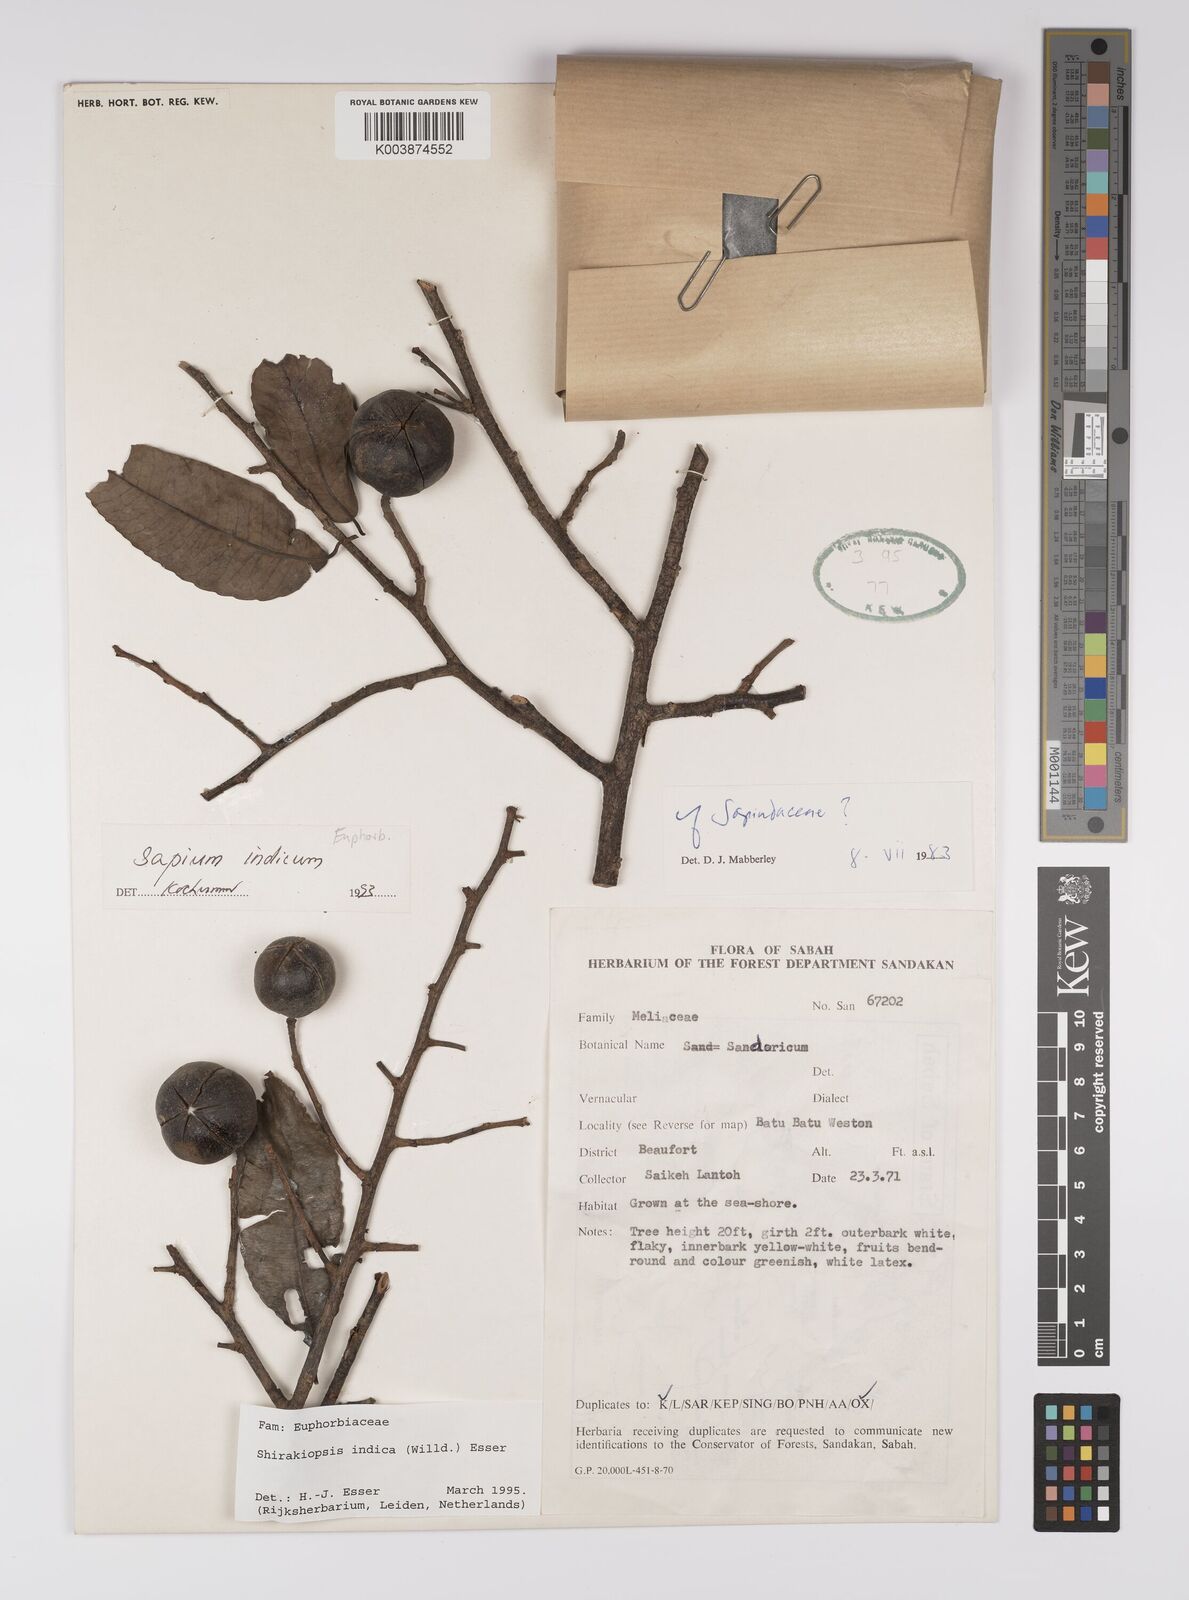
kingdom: Plantae
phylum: Tracheophyta
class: Magnoliopsida
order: Malpighiales
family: Euphorbiaceae
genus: Shirakiopsis
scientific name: Shirakiopsis indica
